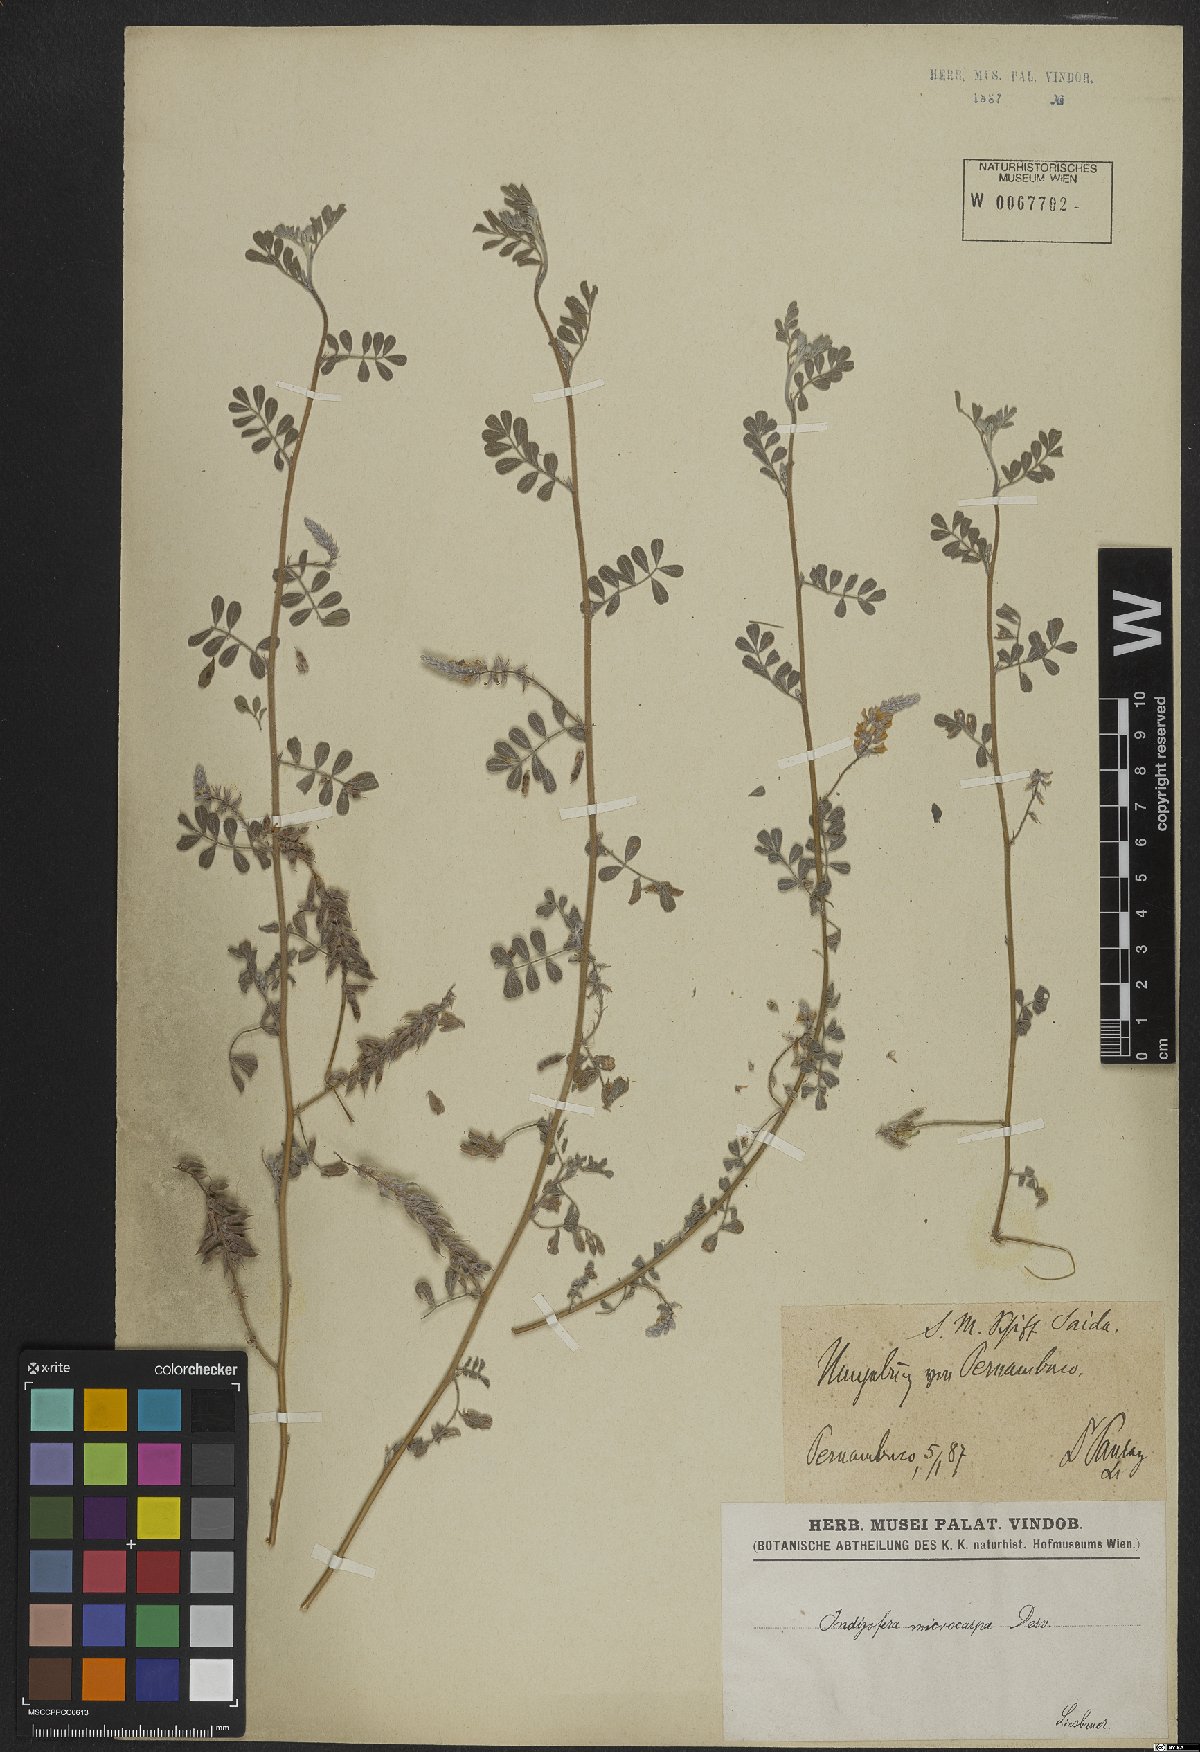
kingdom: Plantae
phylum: Tracheophyta
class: Magnoliopsida
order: Fabales
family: Fabaceae
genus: Indigofera
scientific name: Indigofera microcarpa
